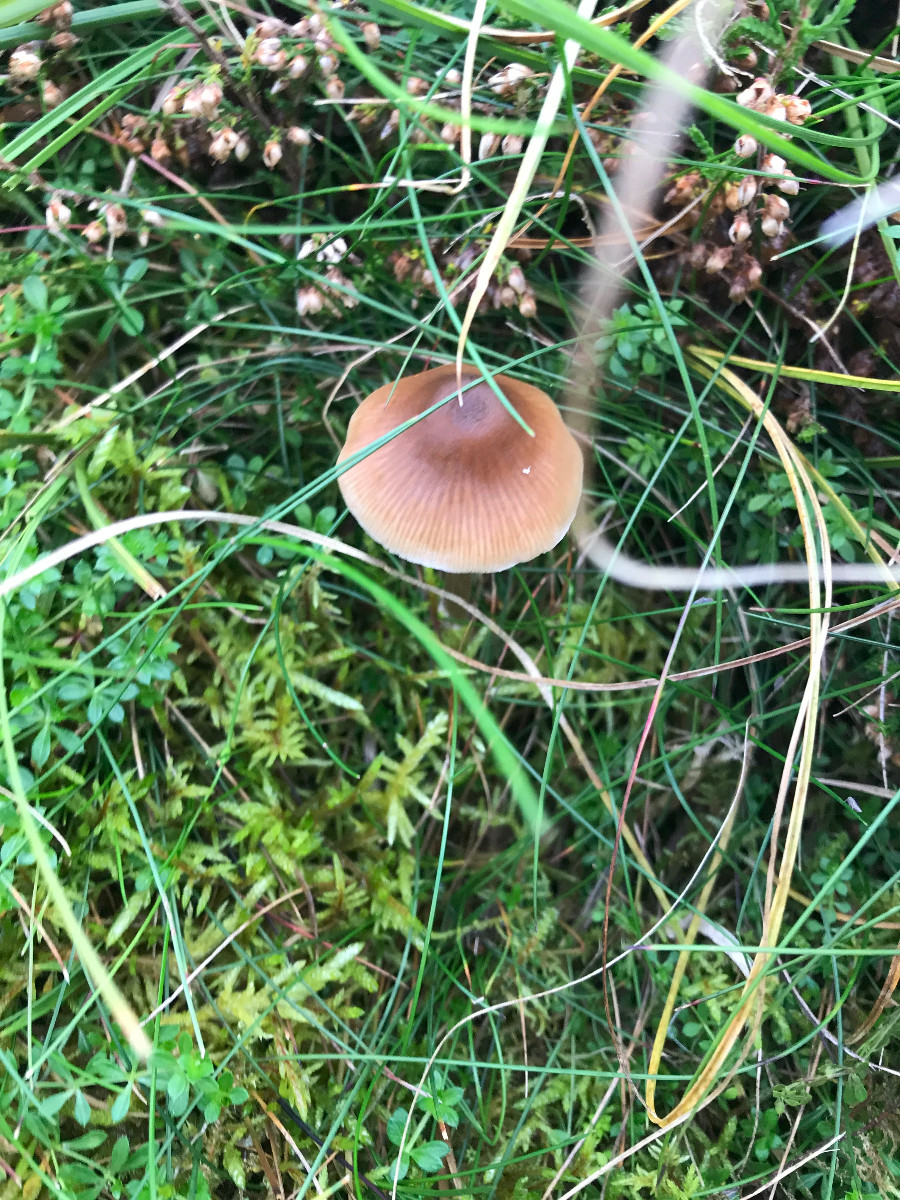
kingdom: Fungi
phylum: Basidiomycota
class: Agaricomycetes
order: Agaricales
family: Entolomataceae
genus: Entoloma
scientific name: Entoloma
